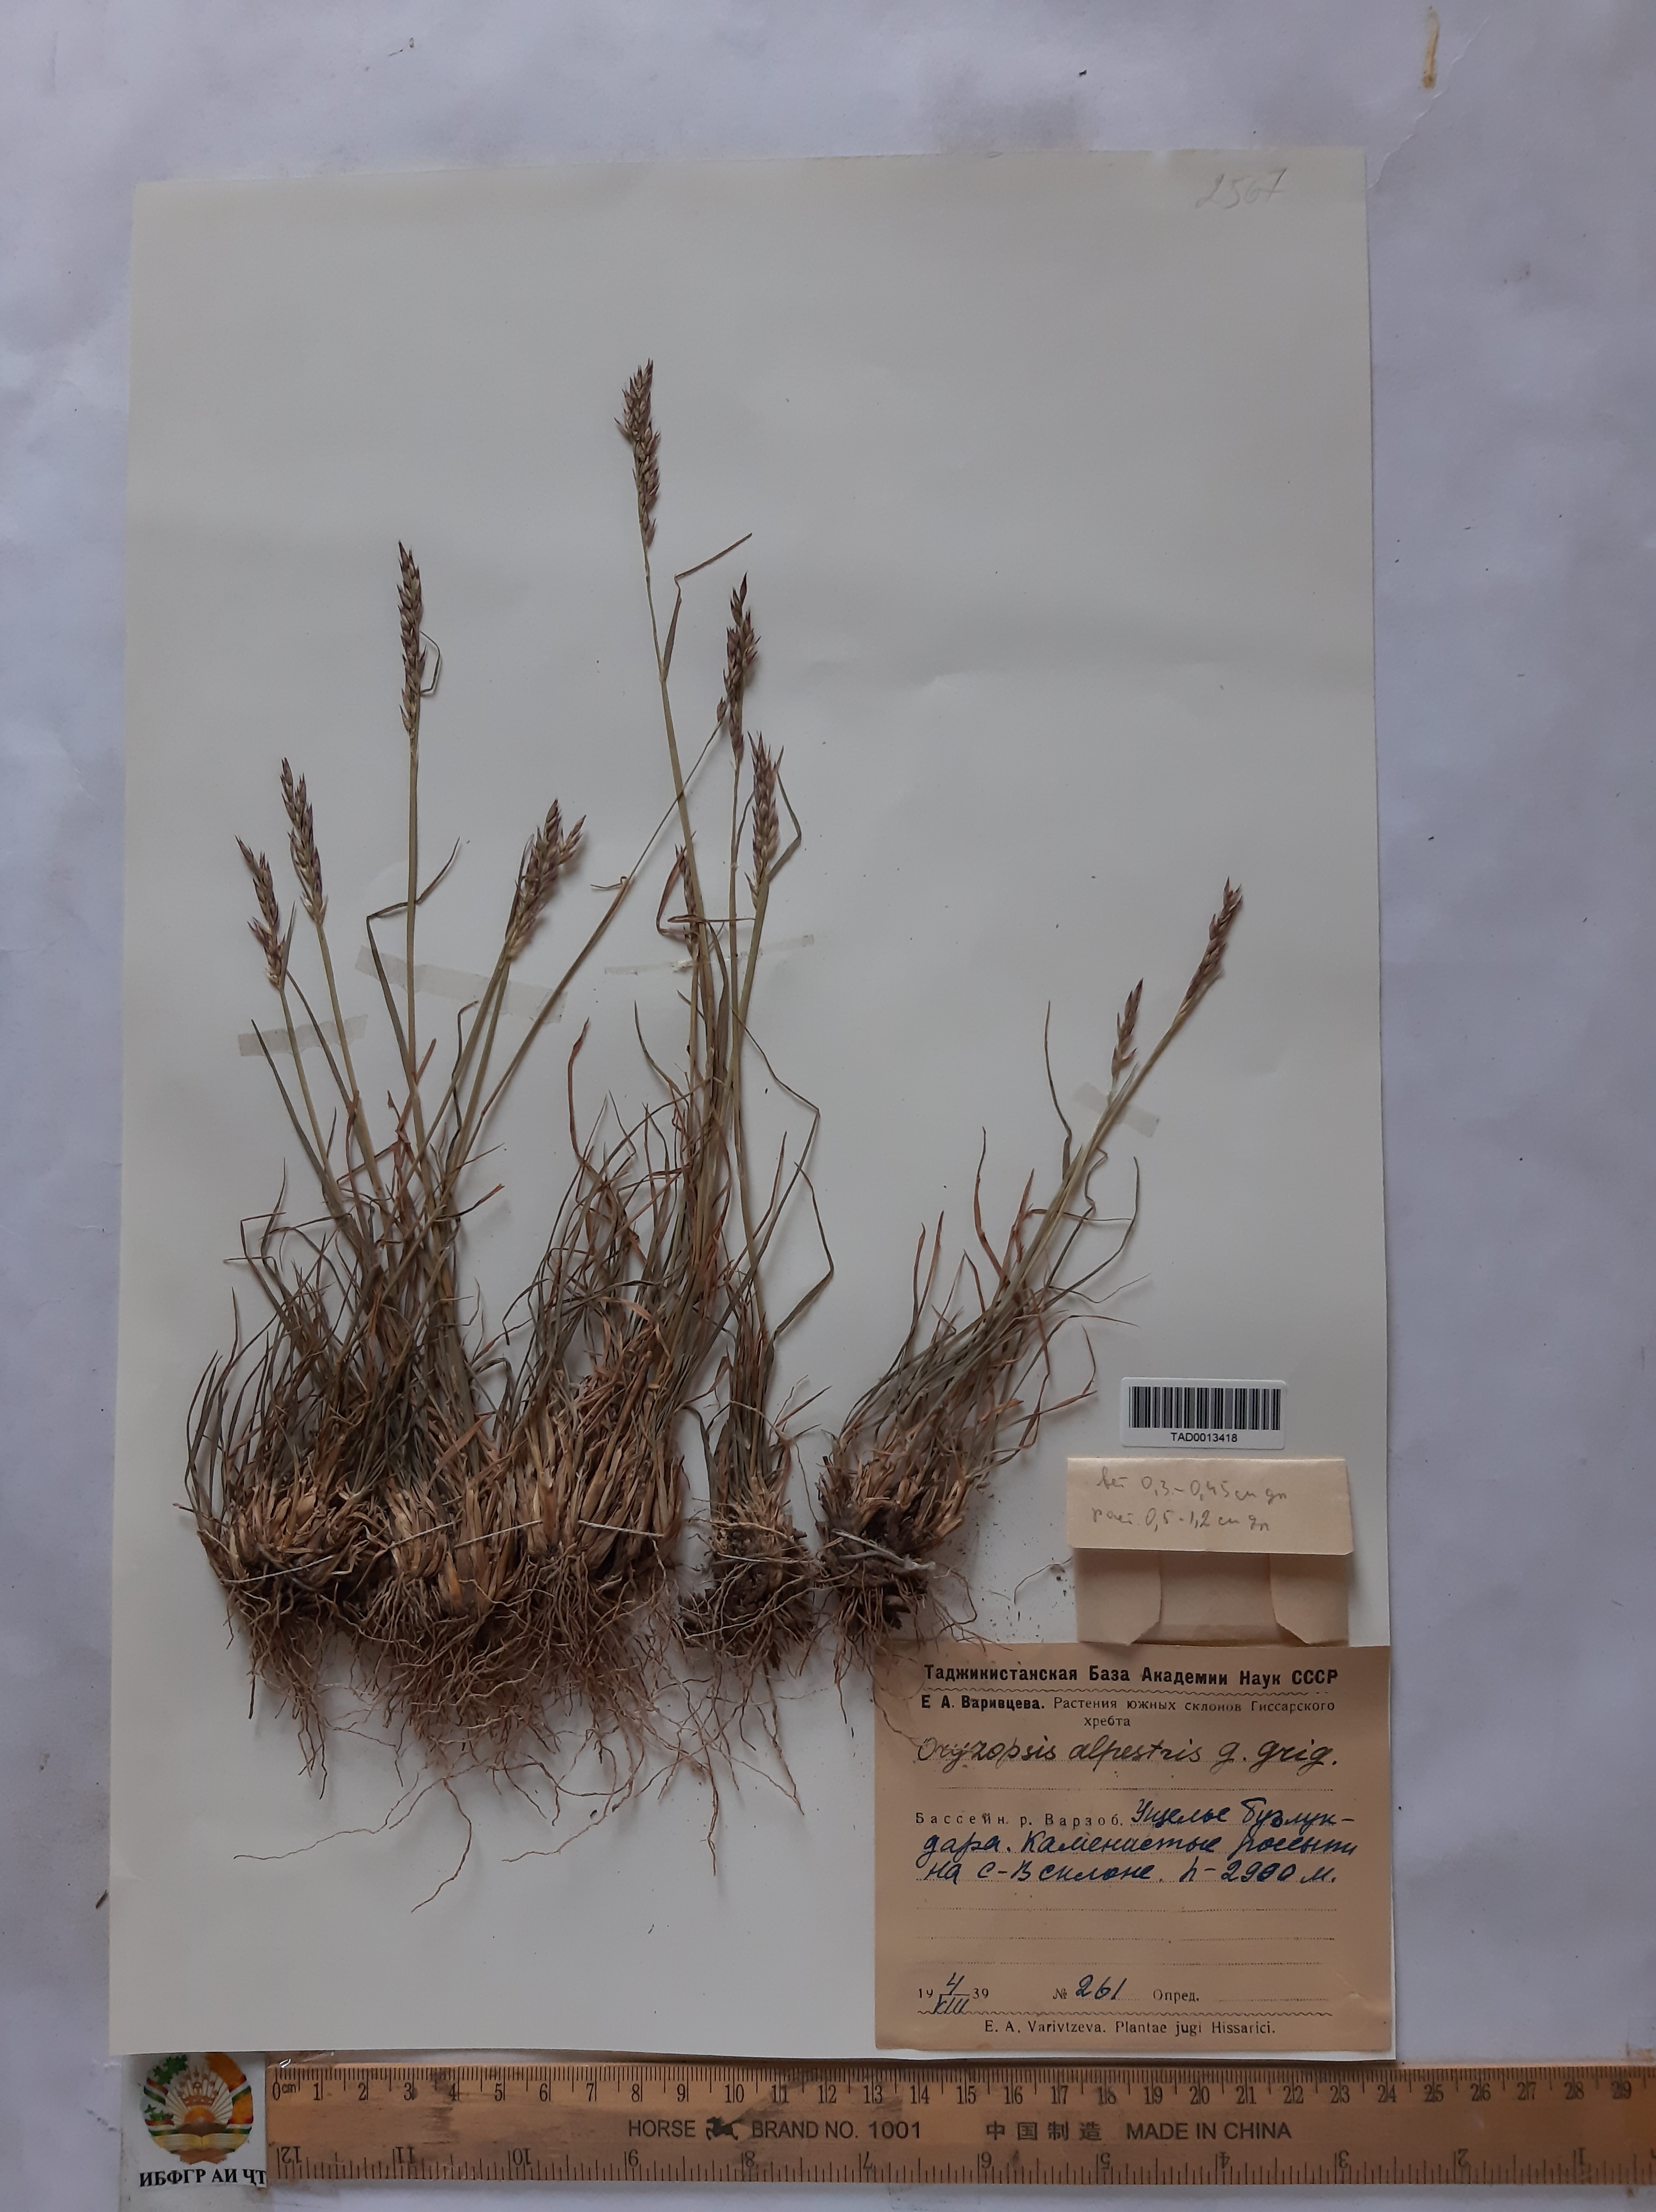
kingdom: Plantae
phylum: Tracheophyta
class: Liliopsida
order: Poales
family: Poaceae
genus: Piptatherum
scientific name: Piptatherum alpestre
